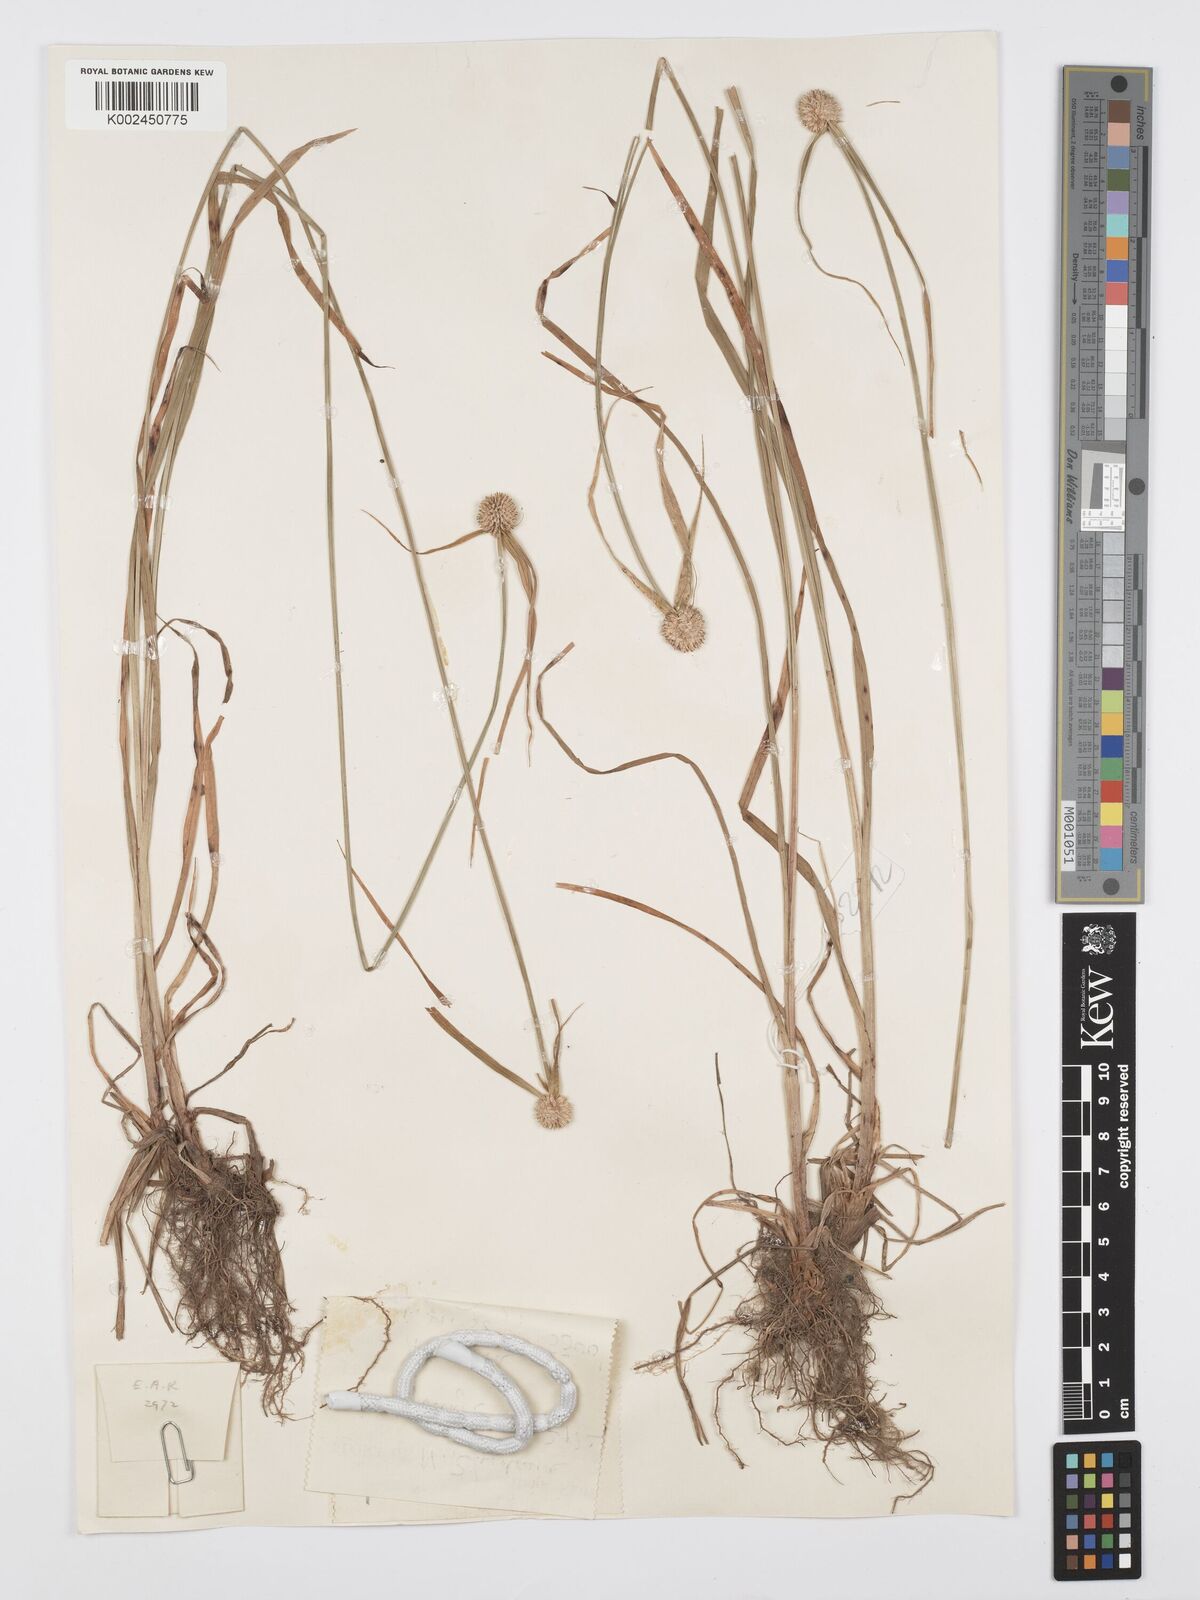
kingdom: Plantae
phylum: Tracheophyta
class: Liliopsida
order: Poales
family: Cyperaceae
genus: Cyperus
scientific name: Cyperus rukwanus
